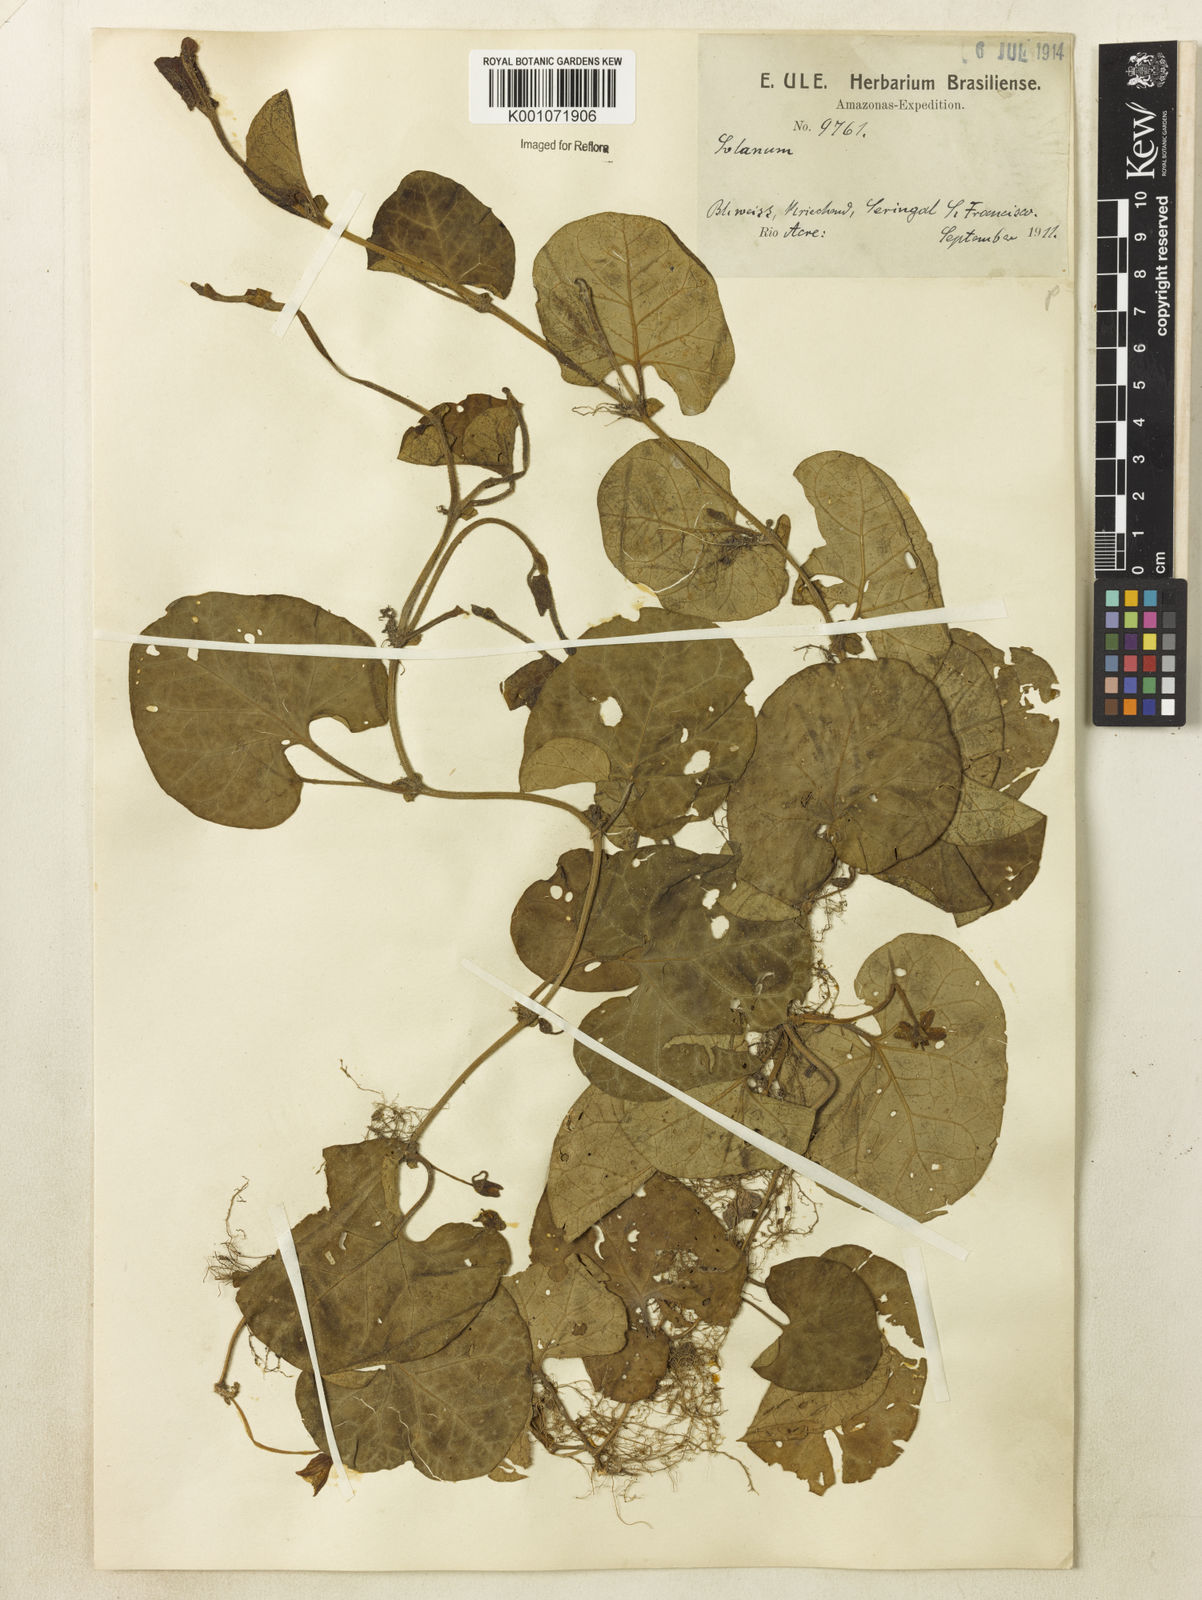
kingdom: Plantae
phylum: Tracheophyta
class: Magnoliopsida
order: Solanales
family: Solanaceae
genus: Lycianthes
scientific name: Lycianthes repens
